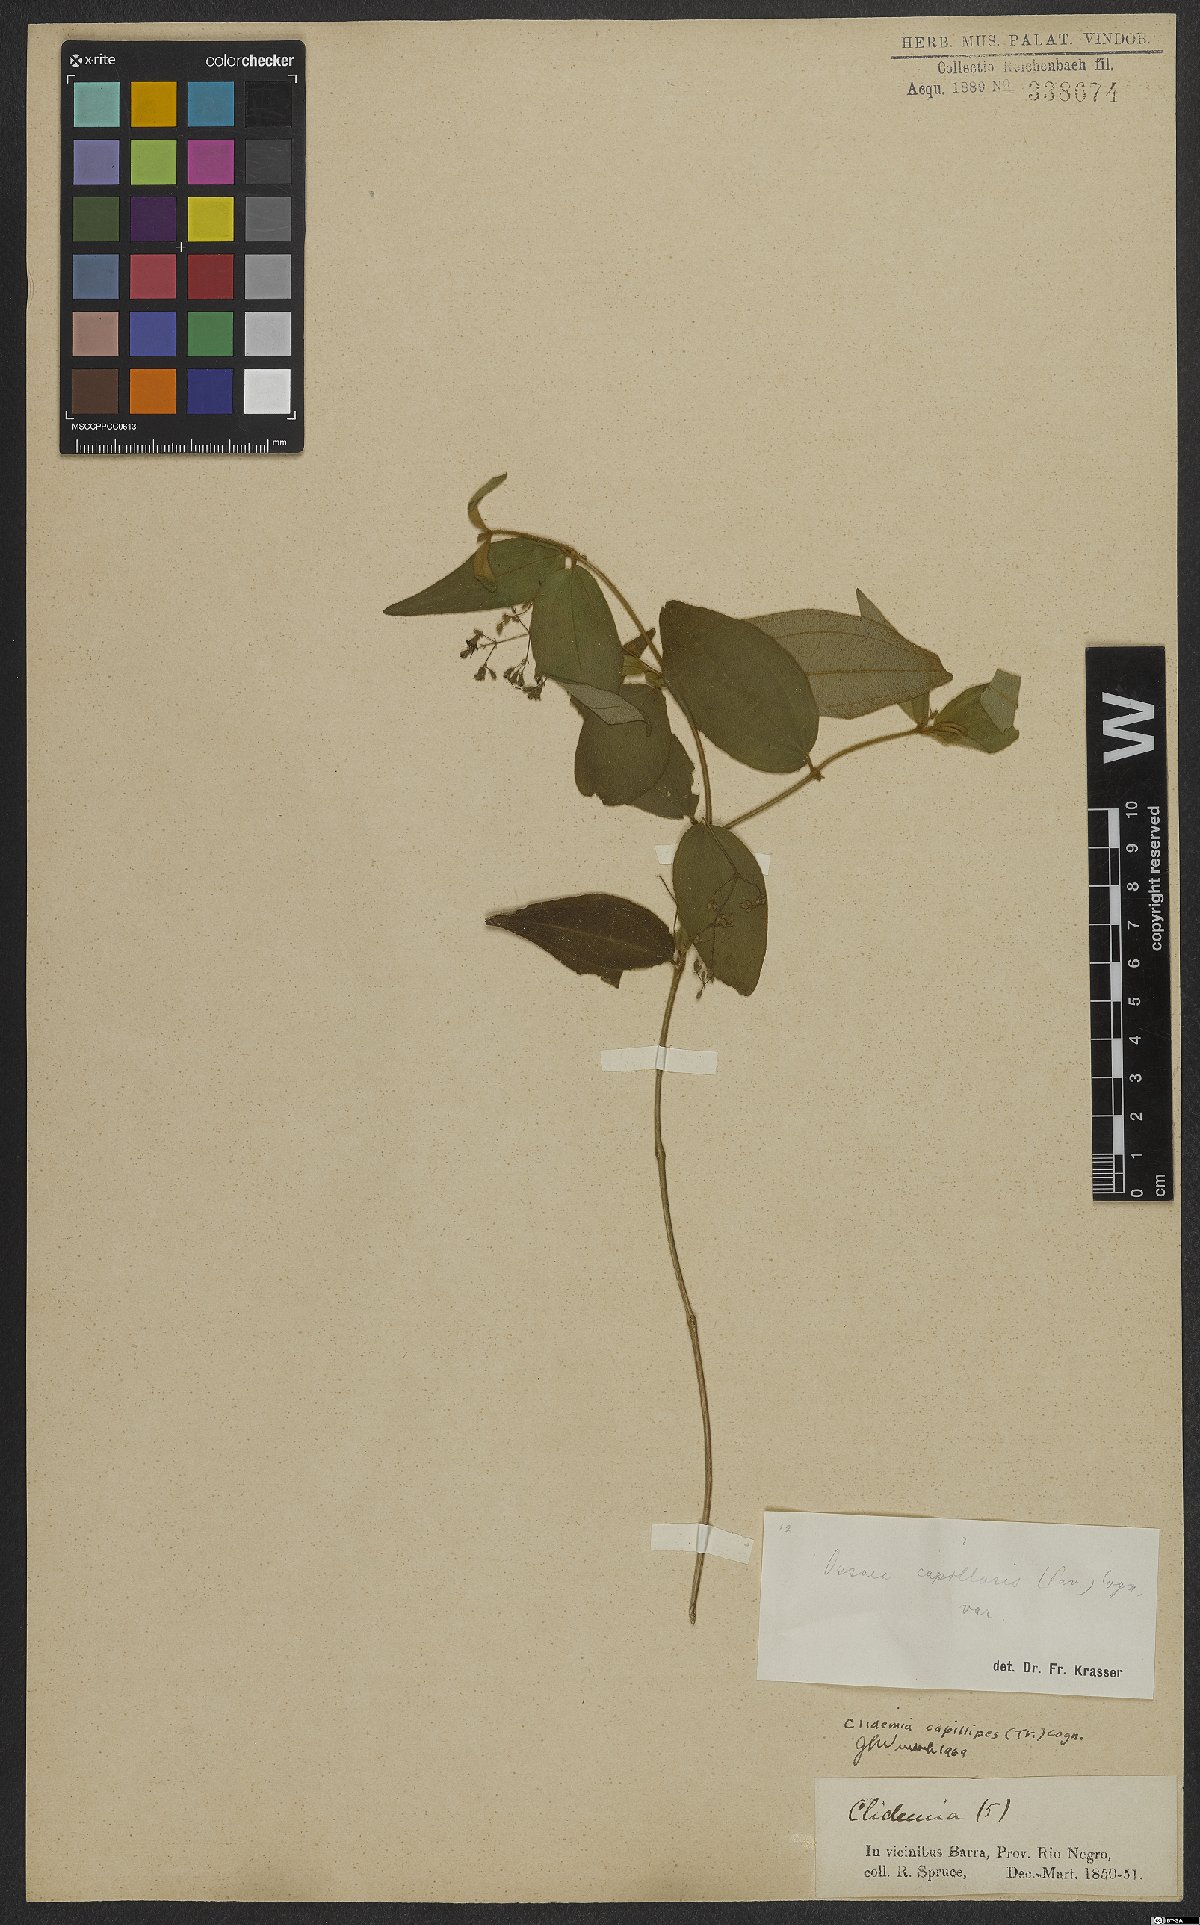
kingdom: Plantae
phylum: Tracheophyta
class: Magnoliopsida
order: Myrtales
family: Melastomataceae
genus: Miconia
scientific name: Miconia capillipes
